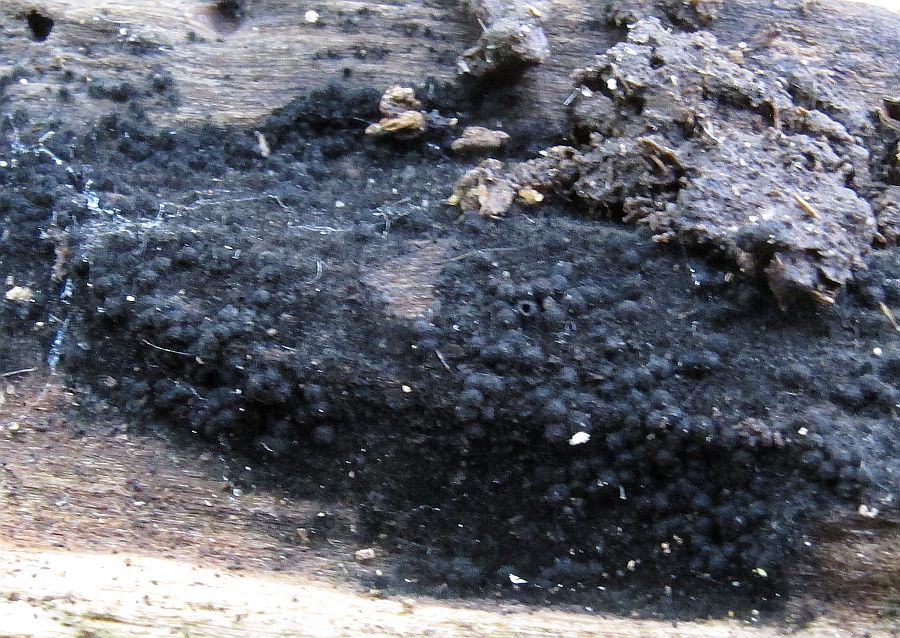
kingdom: Fungi
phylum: Ascomycota
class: Sordariomycetes
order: Sordariales
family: Lasiosphaeridaceae
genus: Lasiosphaeris
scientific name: Lasiosphaeris
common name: kernesvamp
